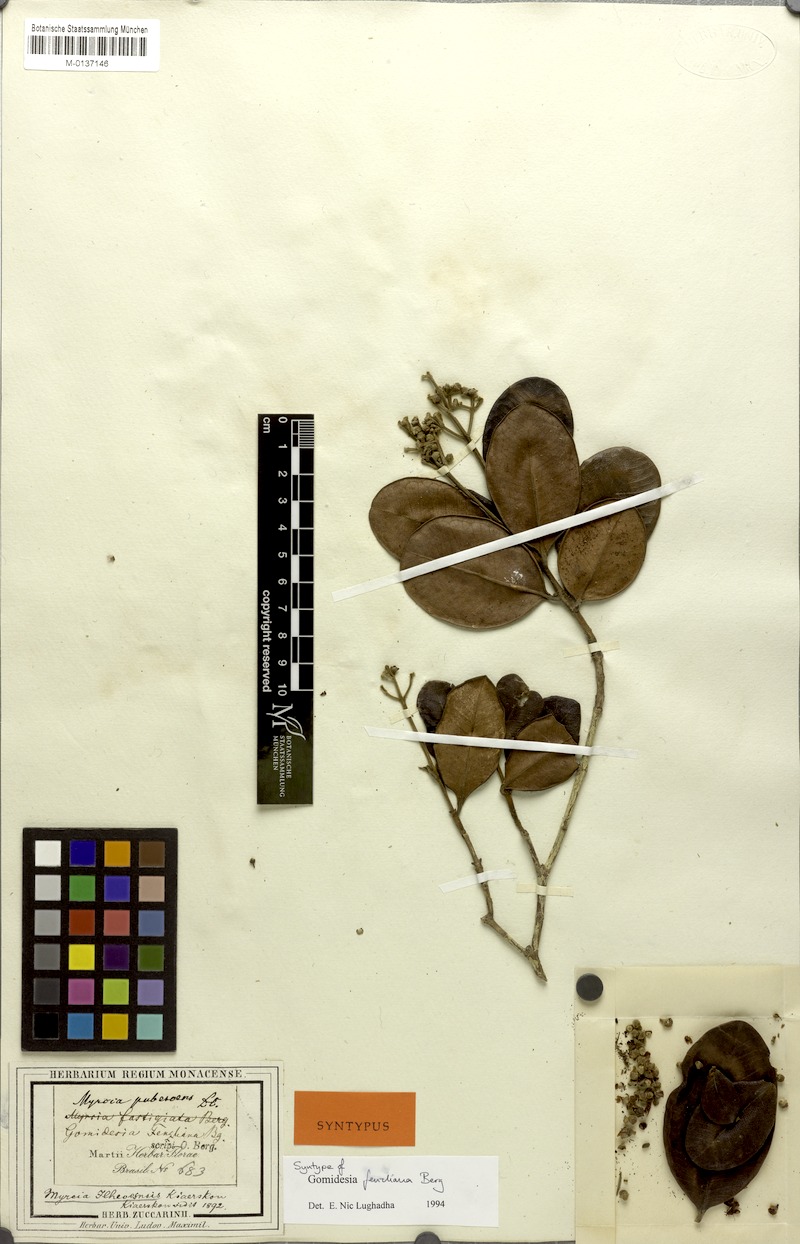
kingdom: Plantae
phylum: Tracheophyta
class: Magnoliopsida
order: Myrtales
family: Myrtaceae
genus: Myrcia
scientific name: Myrcia ilheosensis
